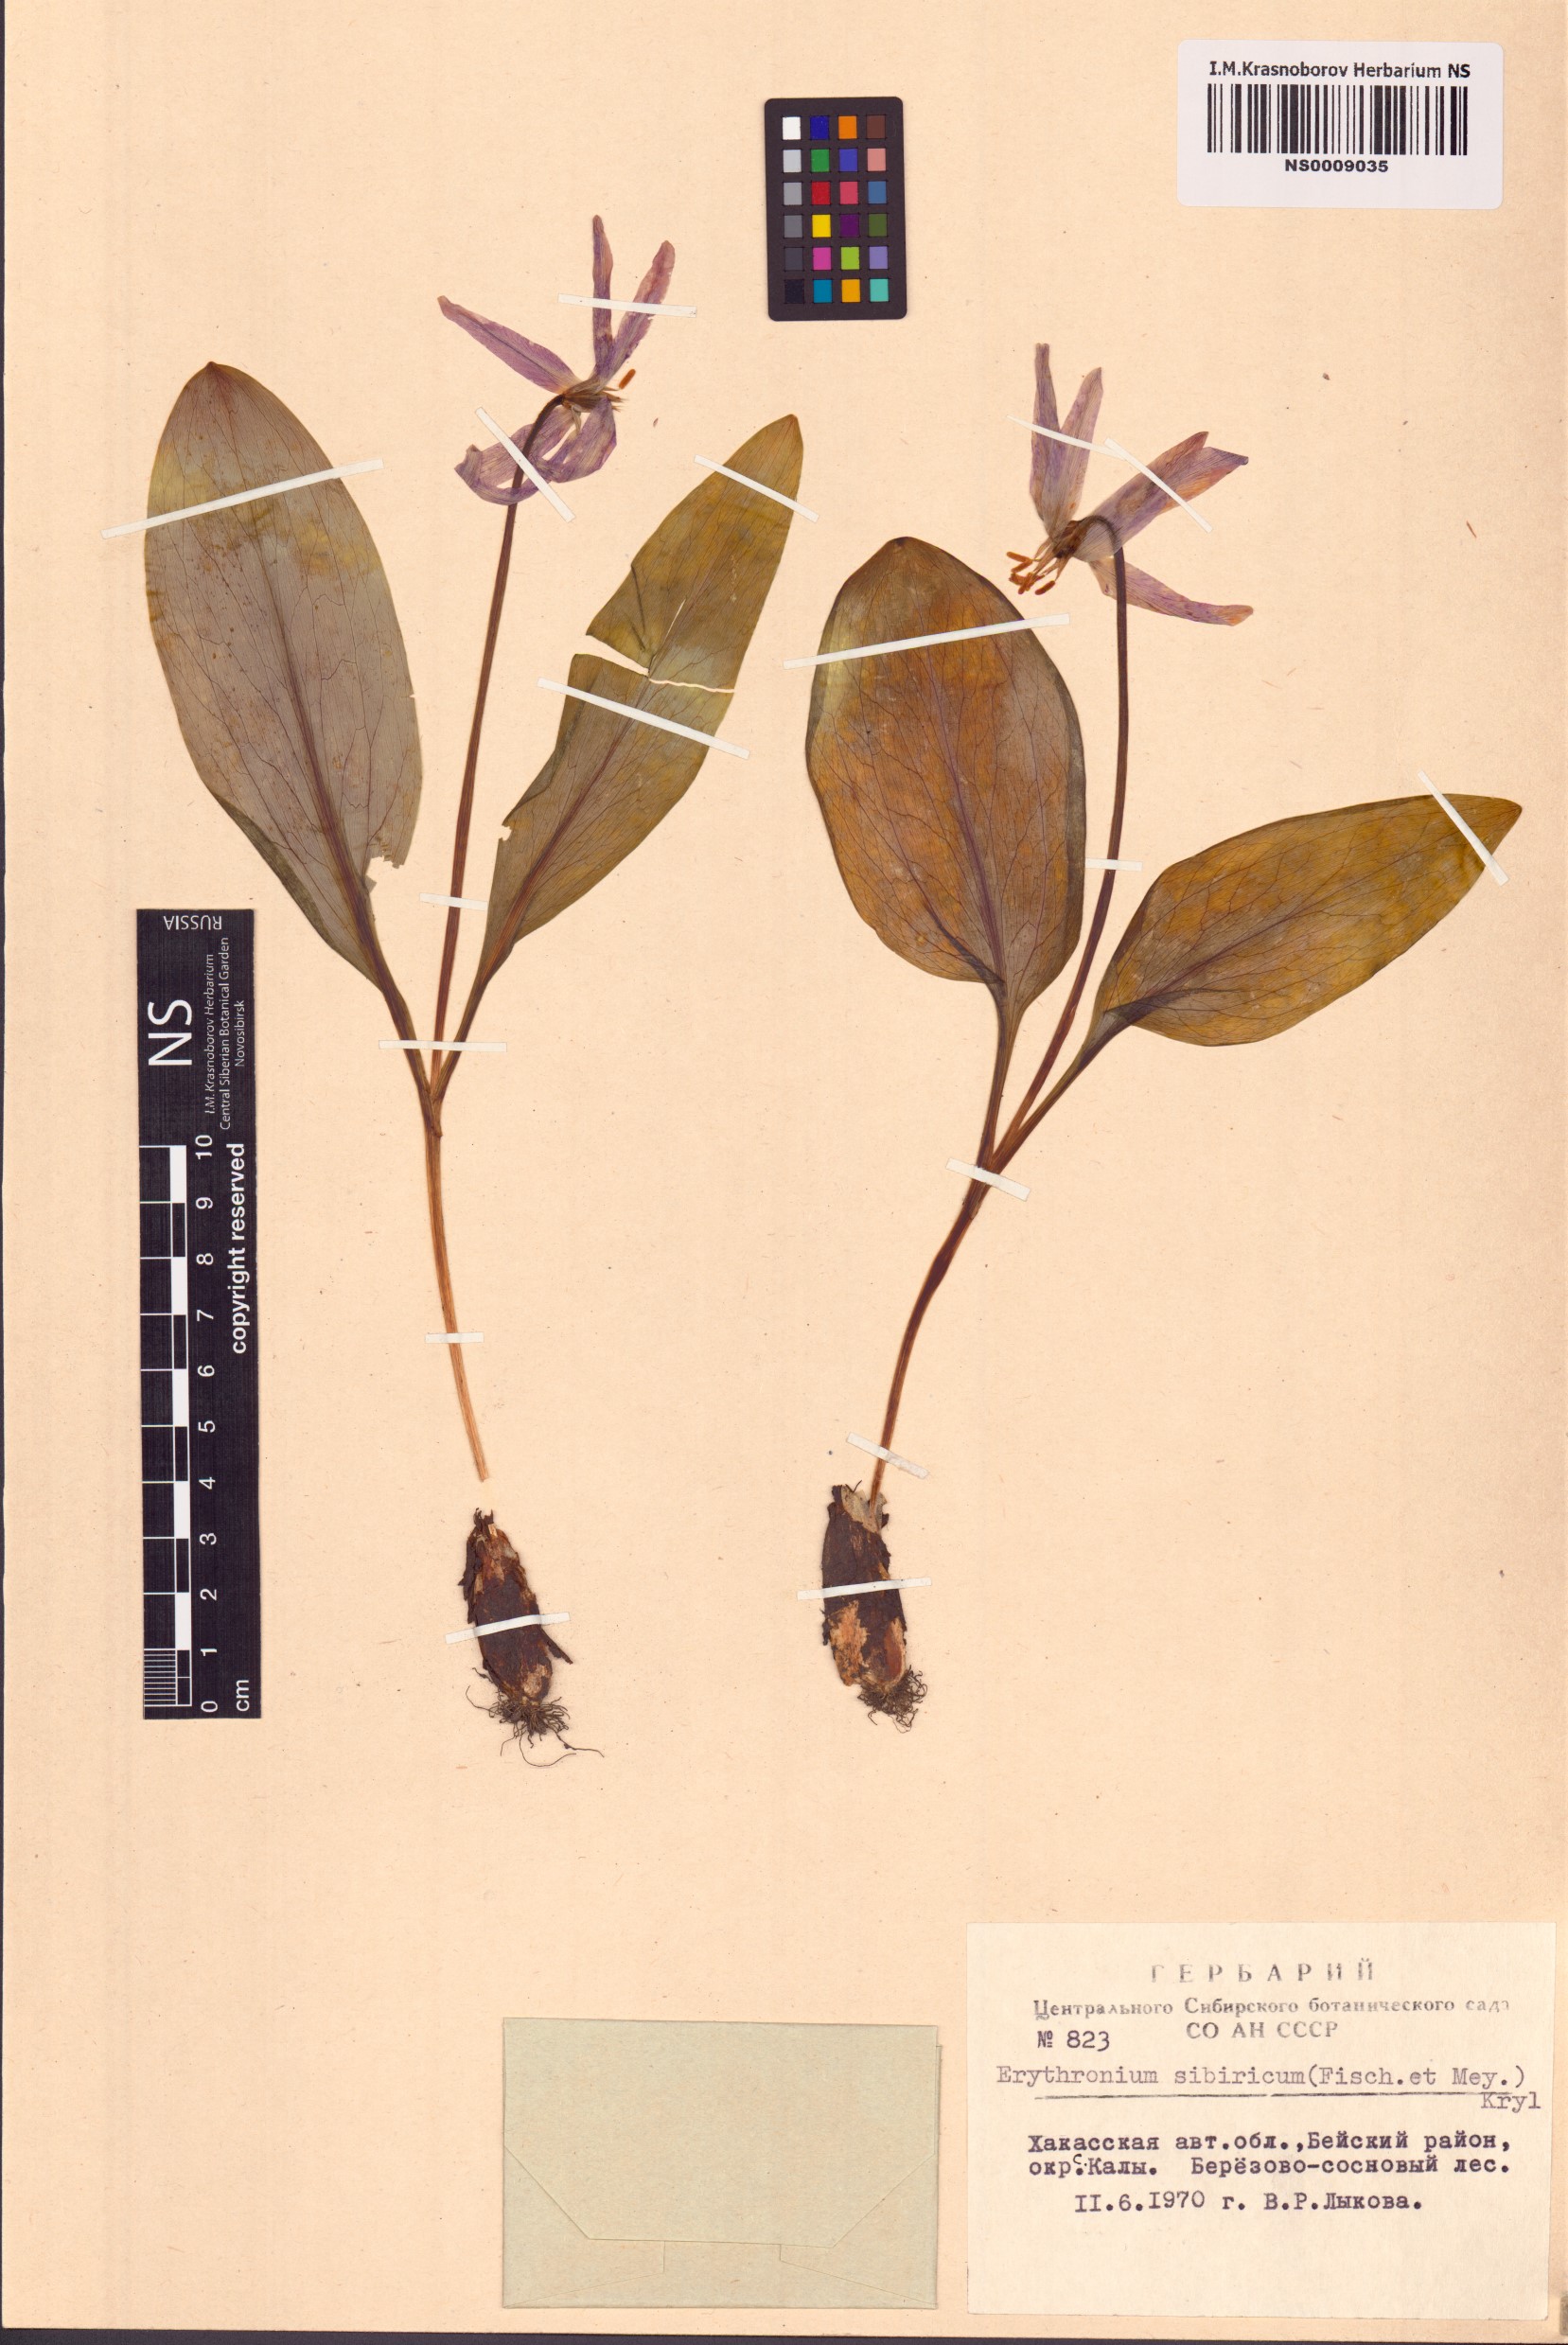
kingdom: Plantae
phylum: Tracheophyta
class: Liliopsida
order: Liliales
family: Liliaceae
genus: Erythronium
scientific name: Erythronium sibiricum
